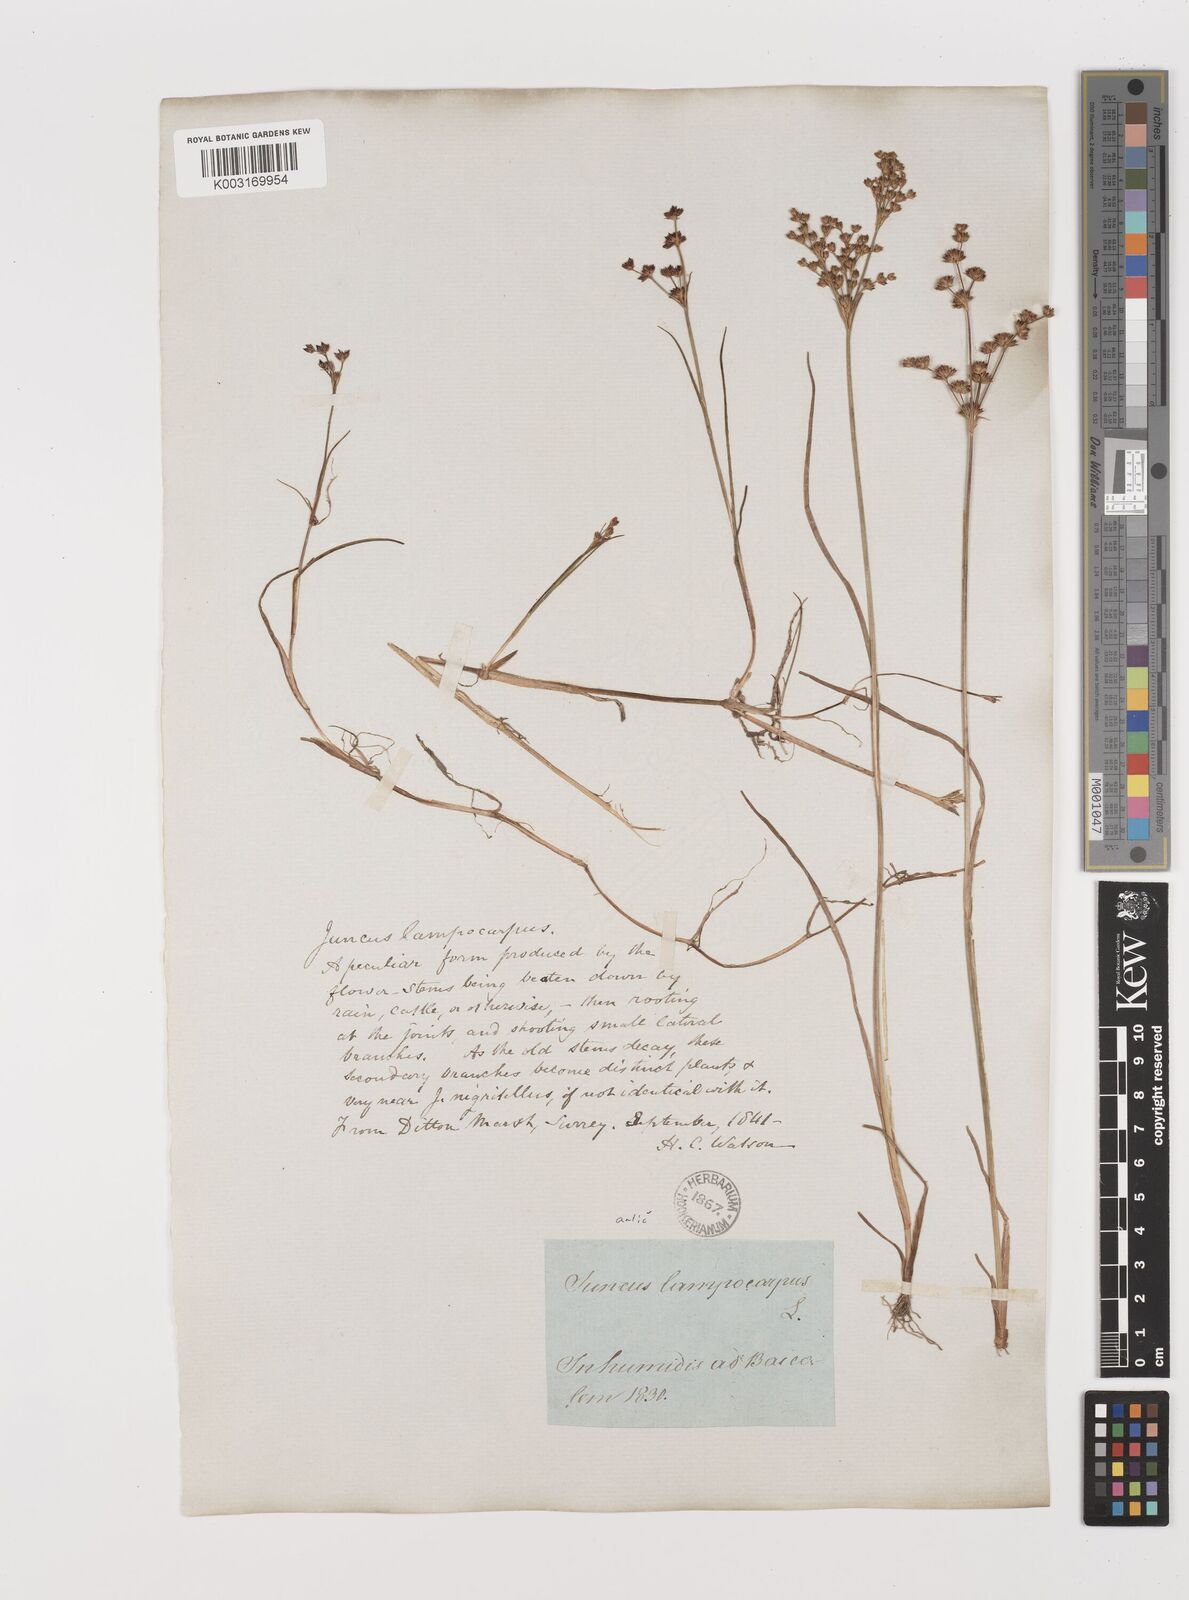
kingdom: Plantae
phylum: Tracheophyta
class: Liliopsida
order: Poales
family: Juncaceae
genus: Juncus
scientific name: Juncus articulatus
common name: Jointed rush
